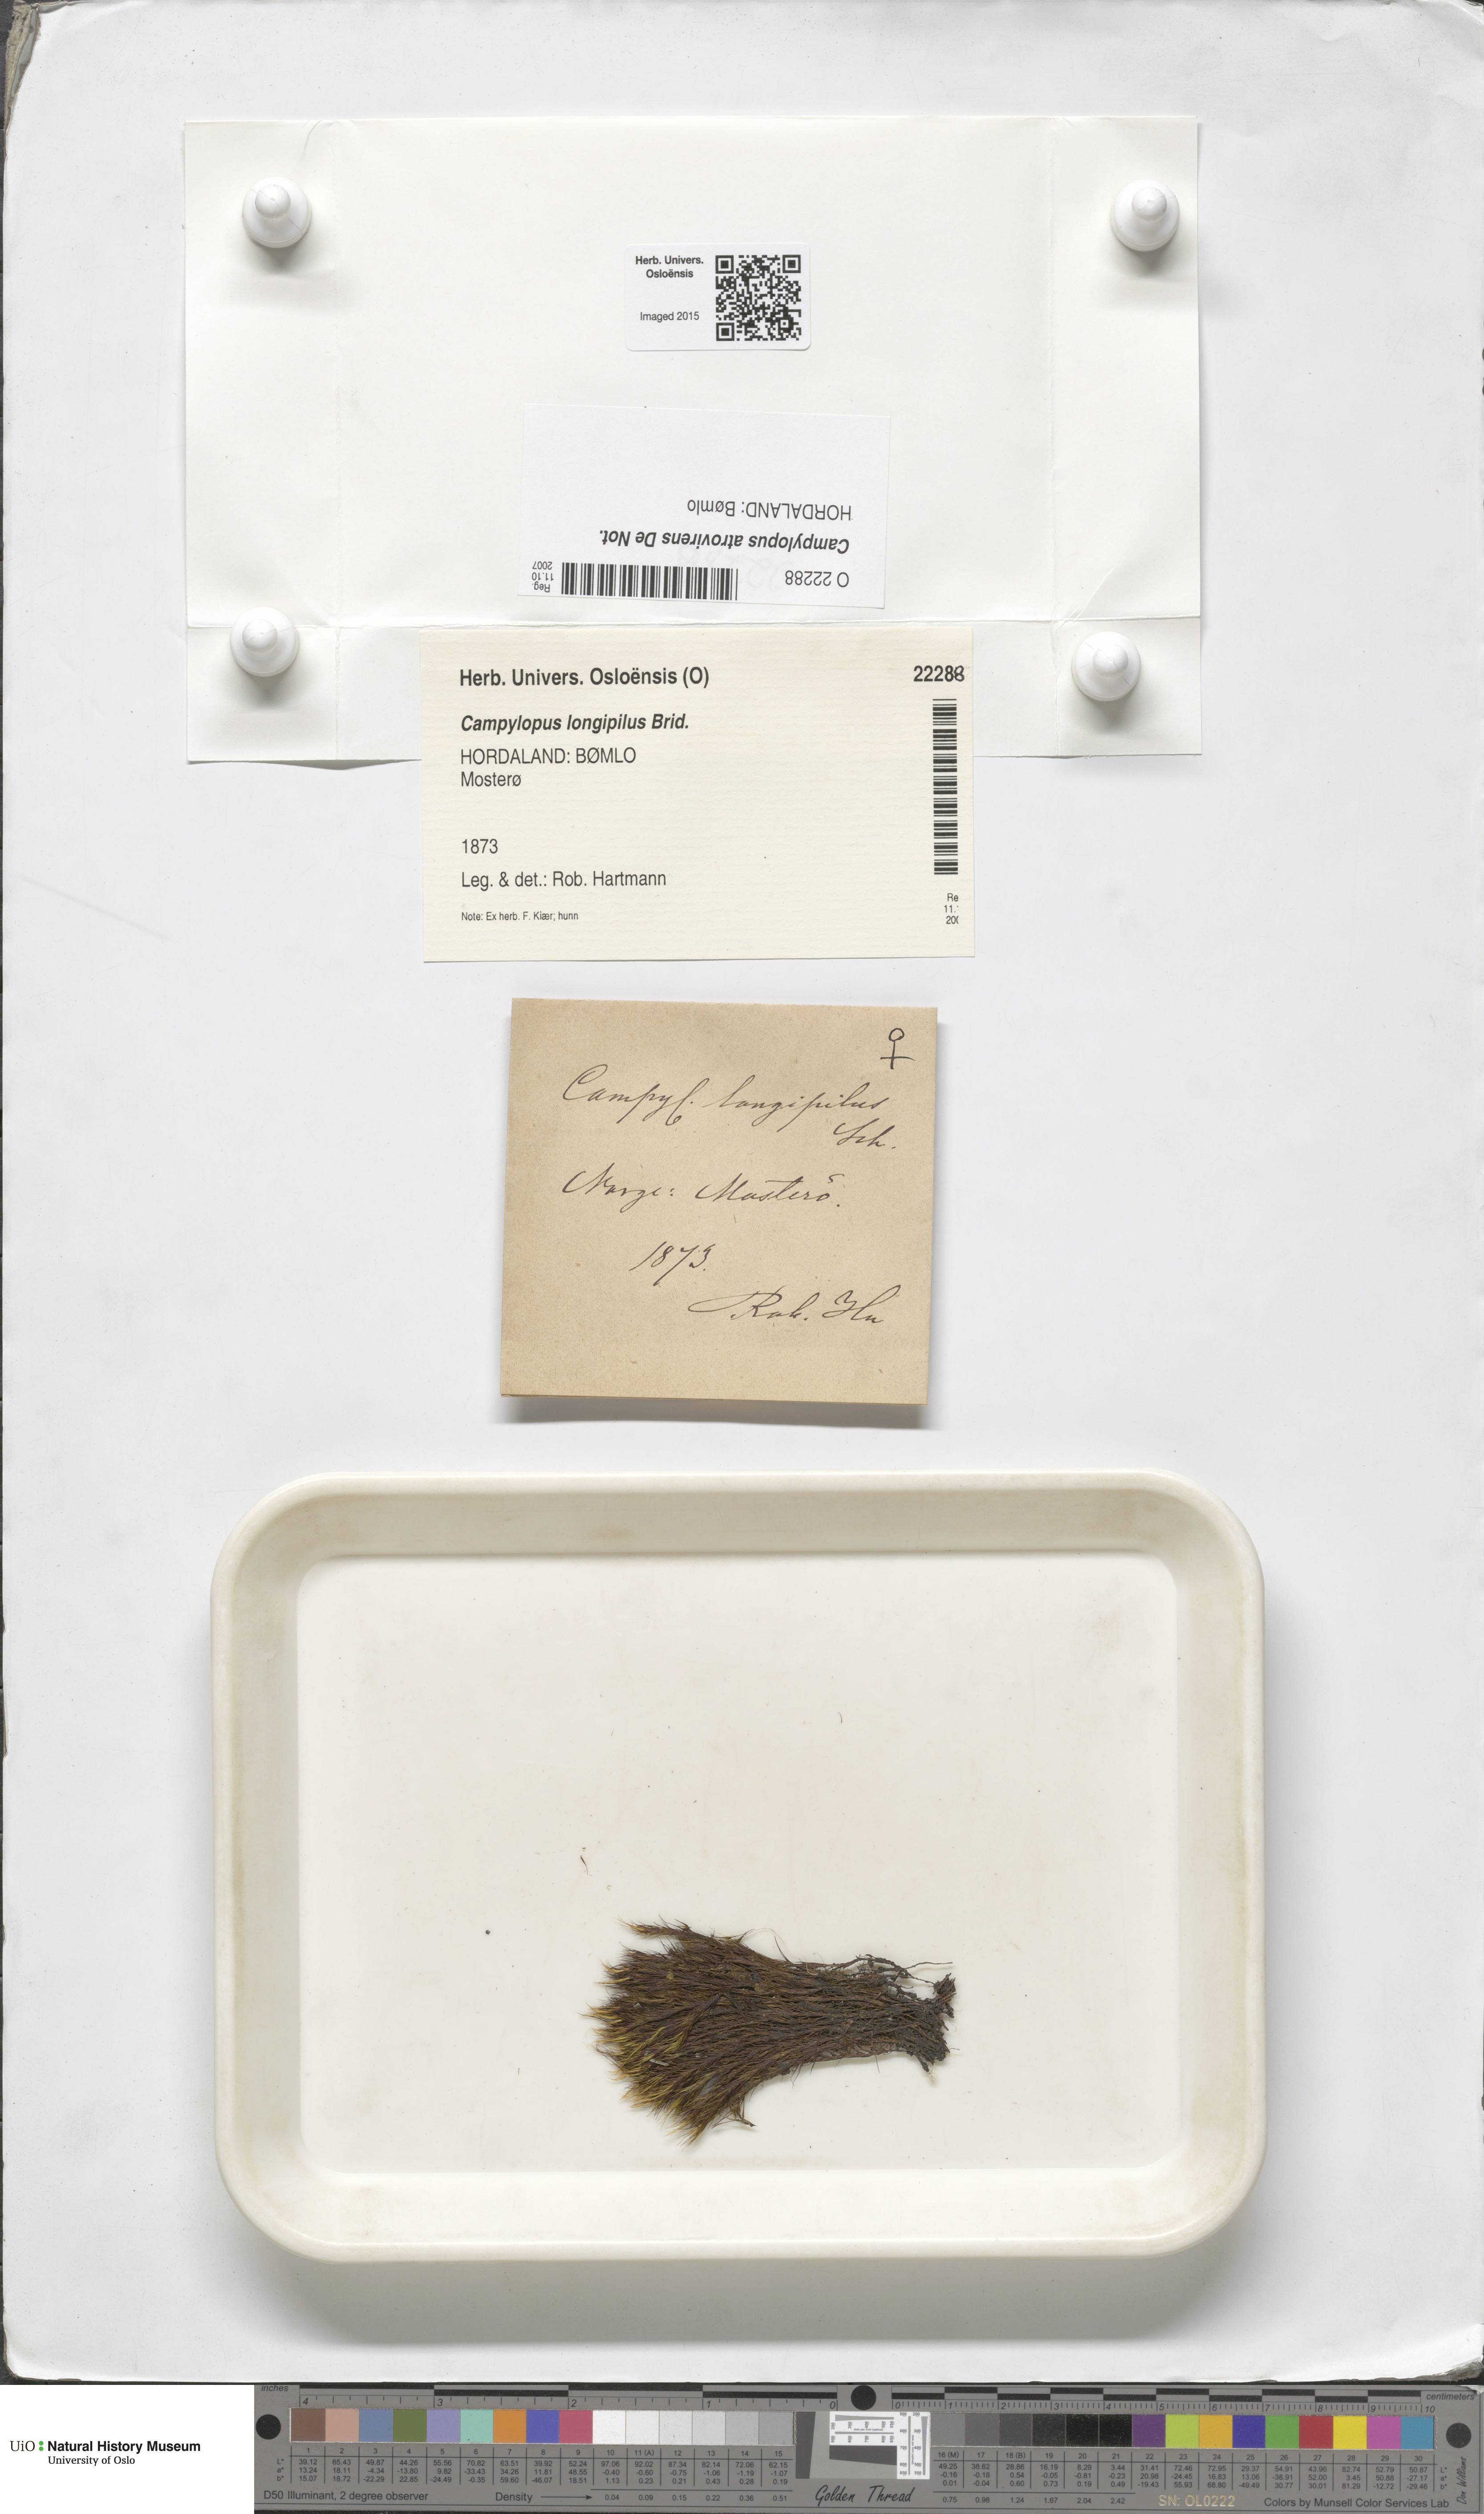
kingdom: Plantae
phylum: Bryophyta
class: Bryopsida
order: Dicranales
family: Leucobryaceae
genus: Campylopus
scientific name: Campylopus atrovirens
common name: Bristly swan-neck moss
